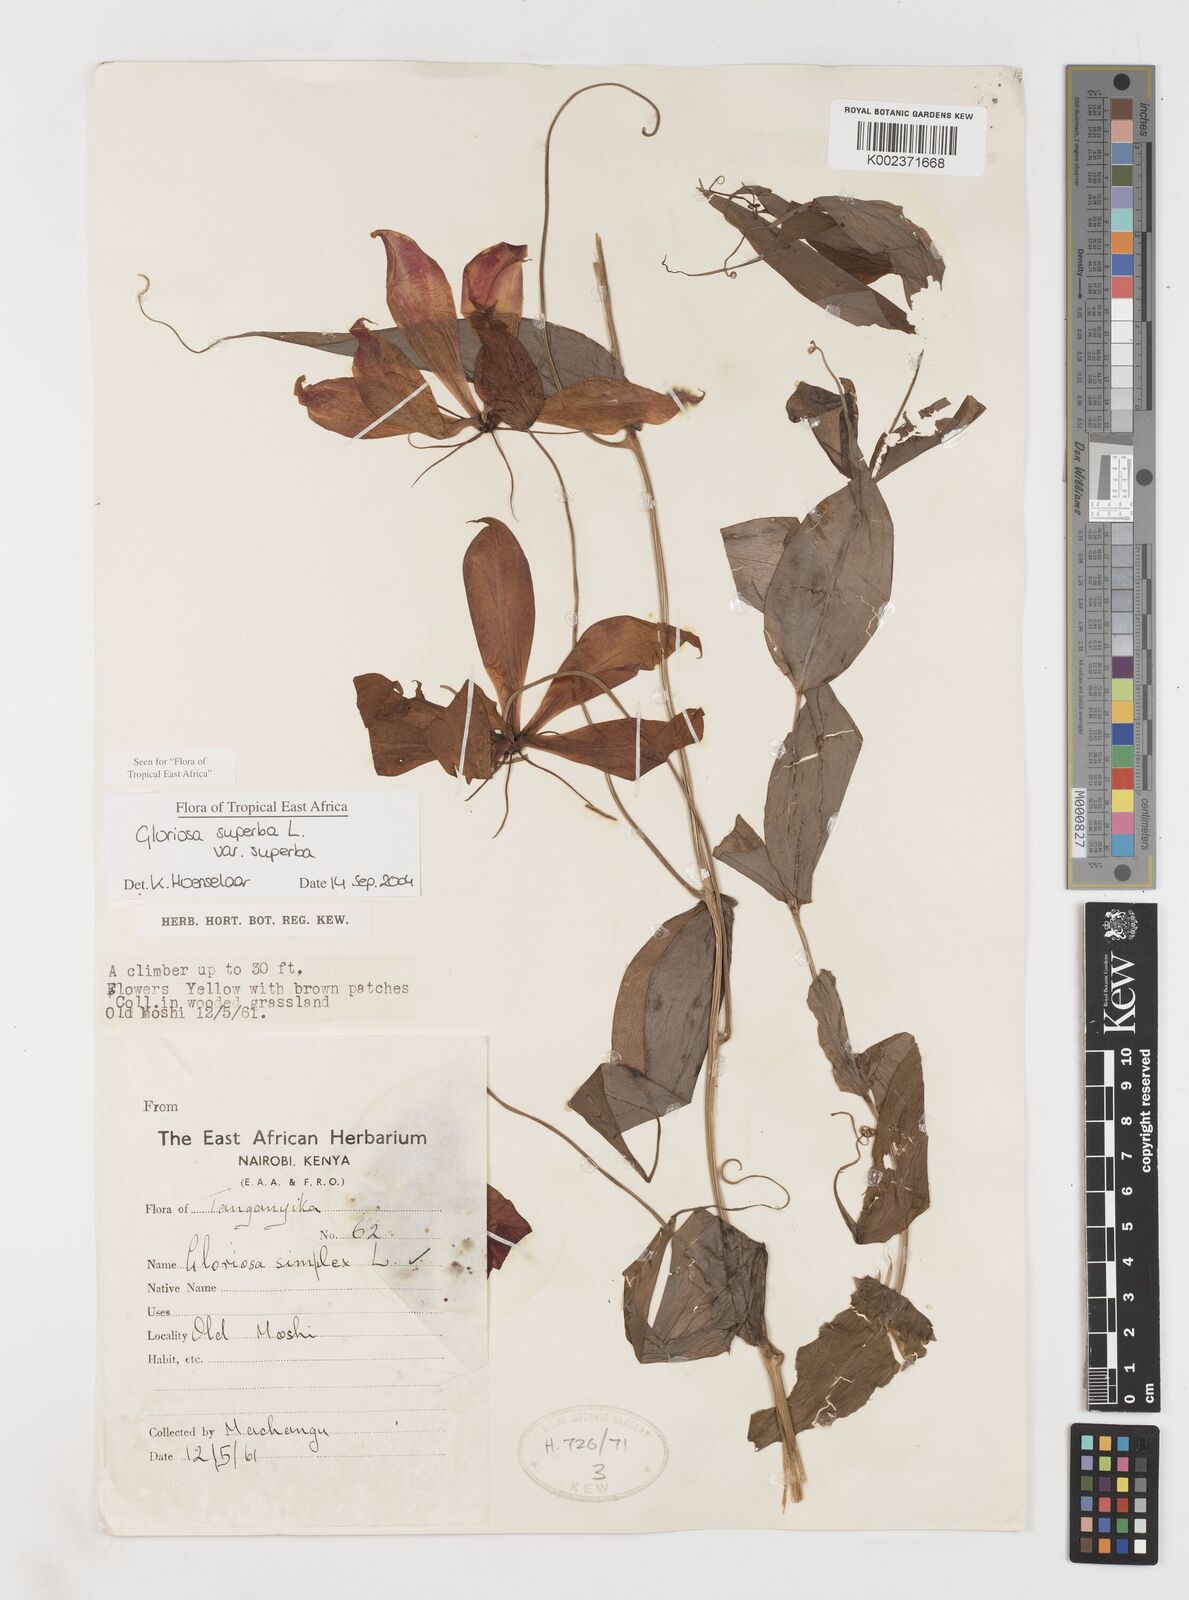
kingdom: Plantae
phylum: Tracheophyta
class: Liliopsida
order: Liliales
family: Colchicaceae
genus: Gloriosa
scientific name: Gloriosa simplex
